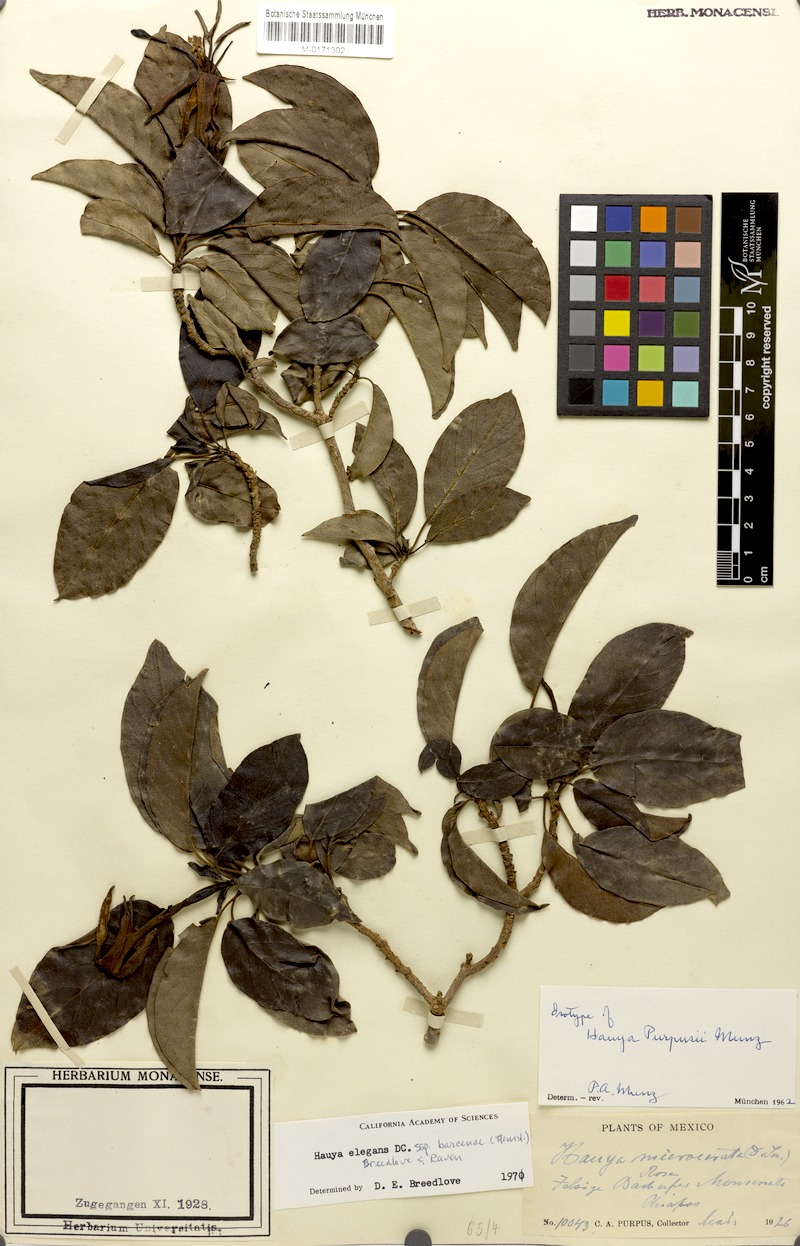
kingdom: Plantae
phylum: Tracheophyta
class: Magnoliopsida
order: Myrtales
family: Onagraceae
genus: Hauya
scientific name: Hauya elegans
